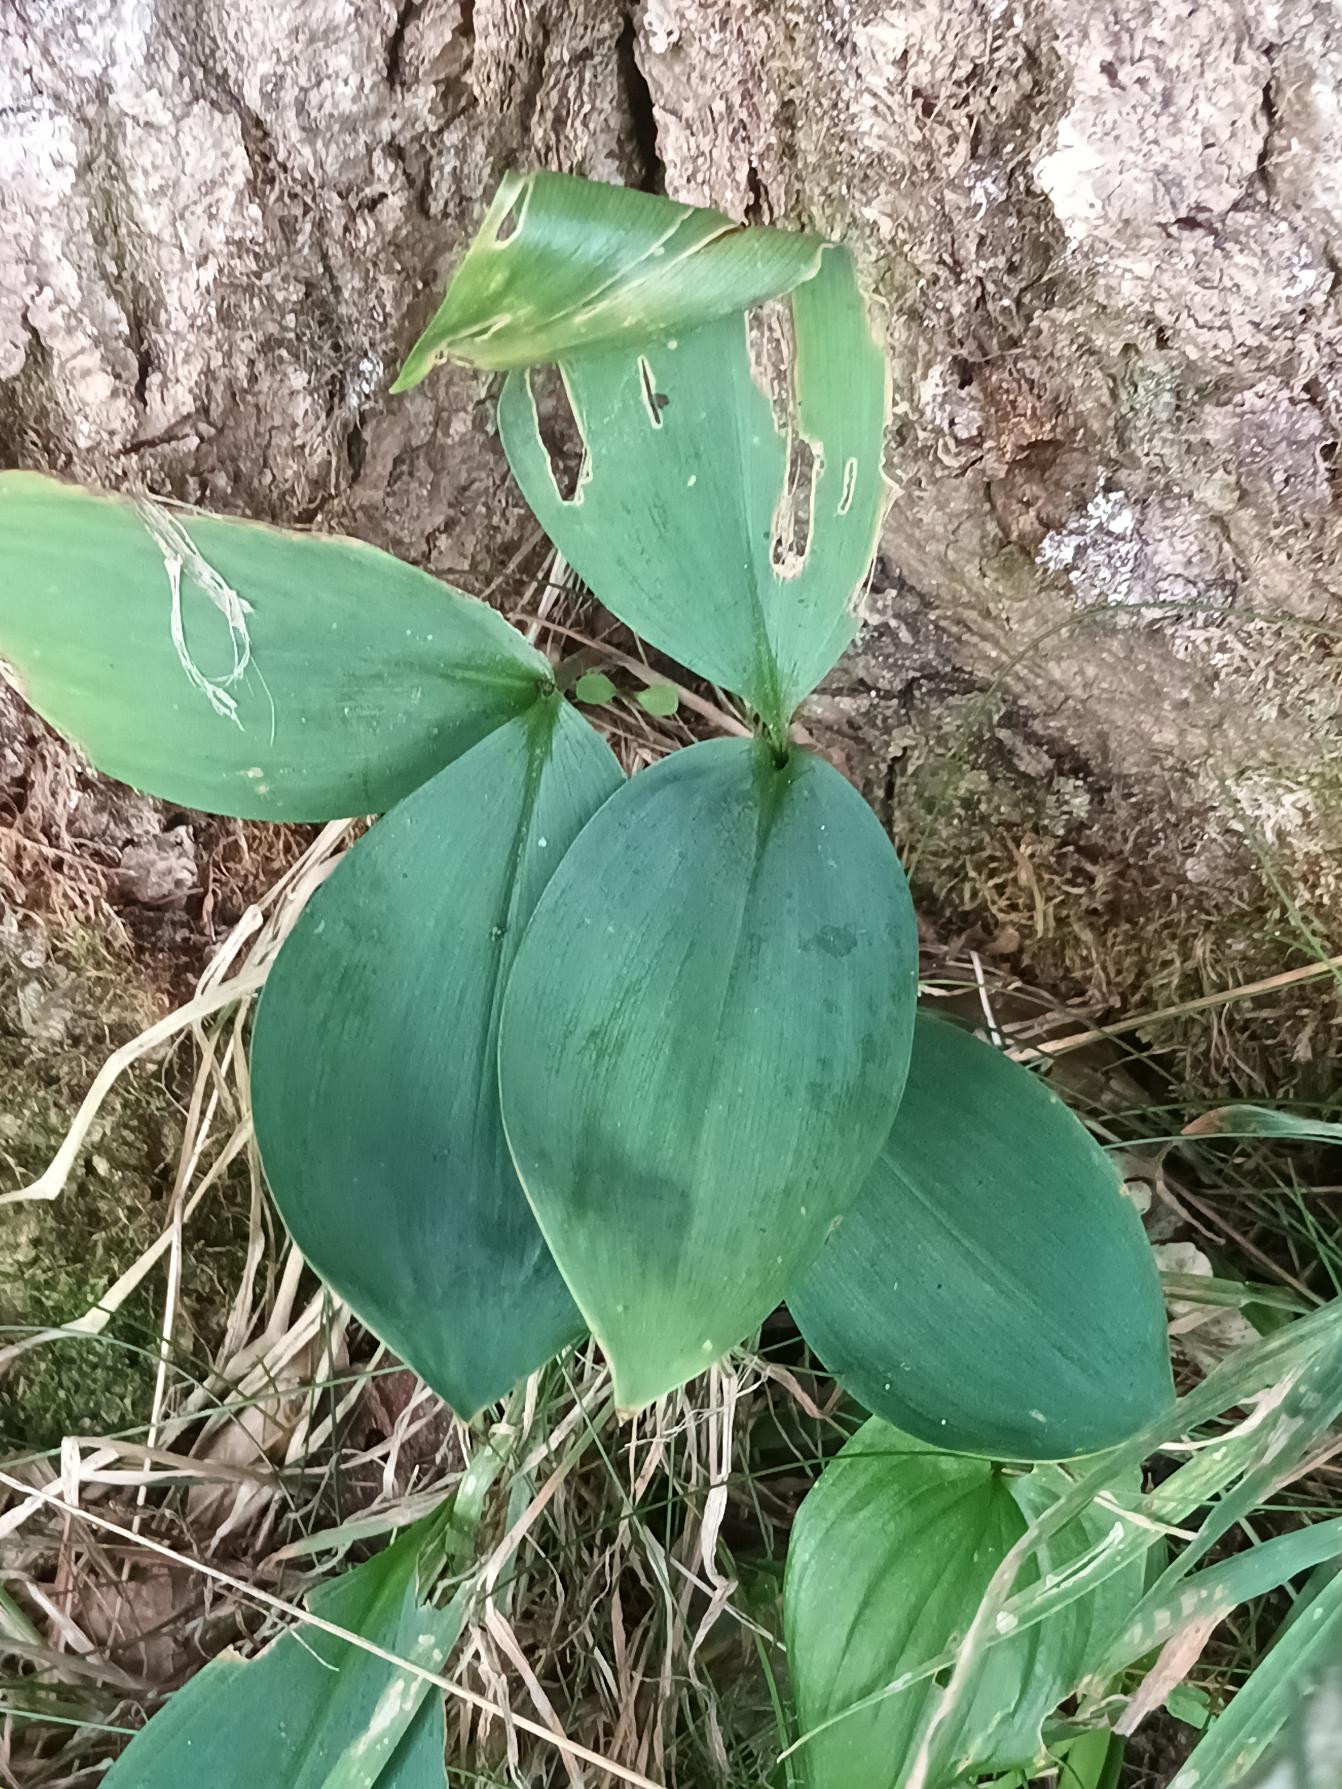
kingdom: Plantae
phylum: Tracheophyta
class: Liliopsida
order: Asparagales
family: Asparagaceae
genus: Convallaria
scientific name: Convallaria majalis
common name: Liljekonval
